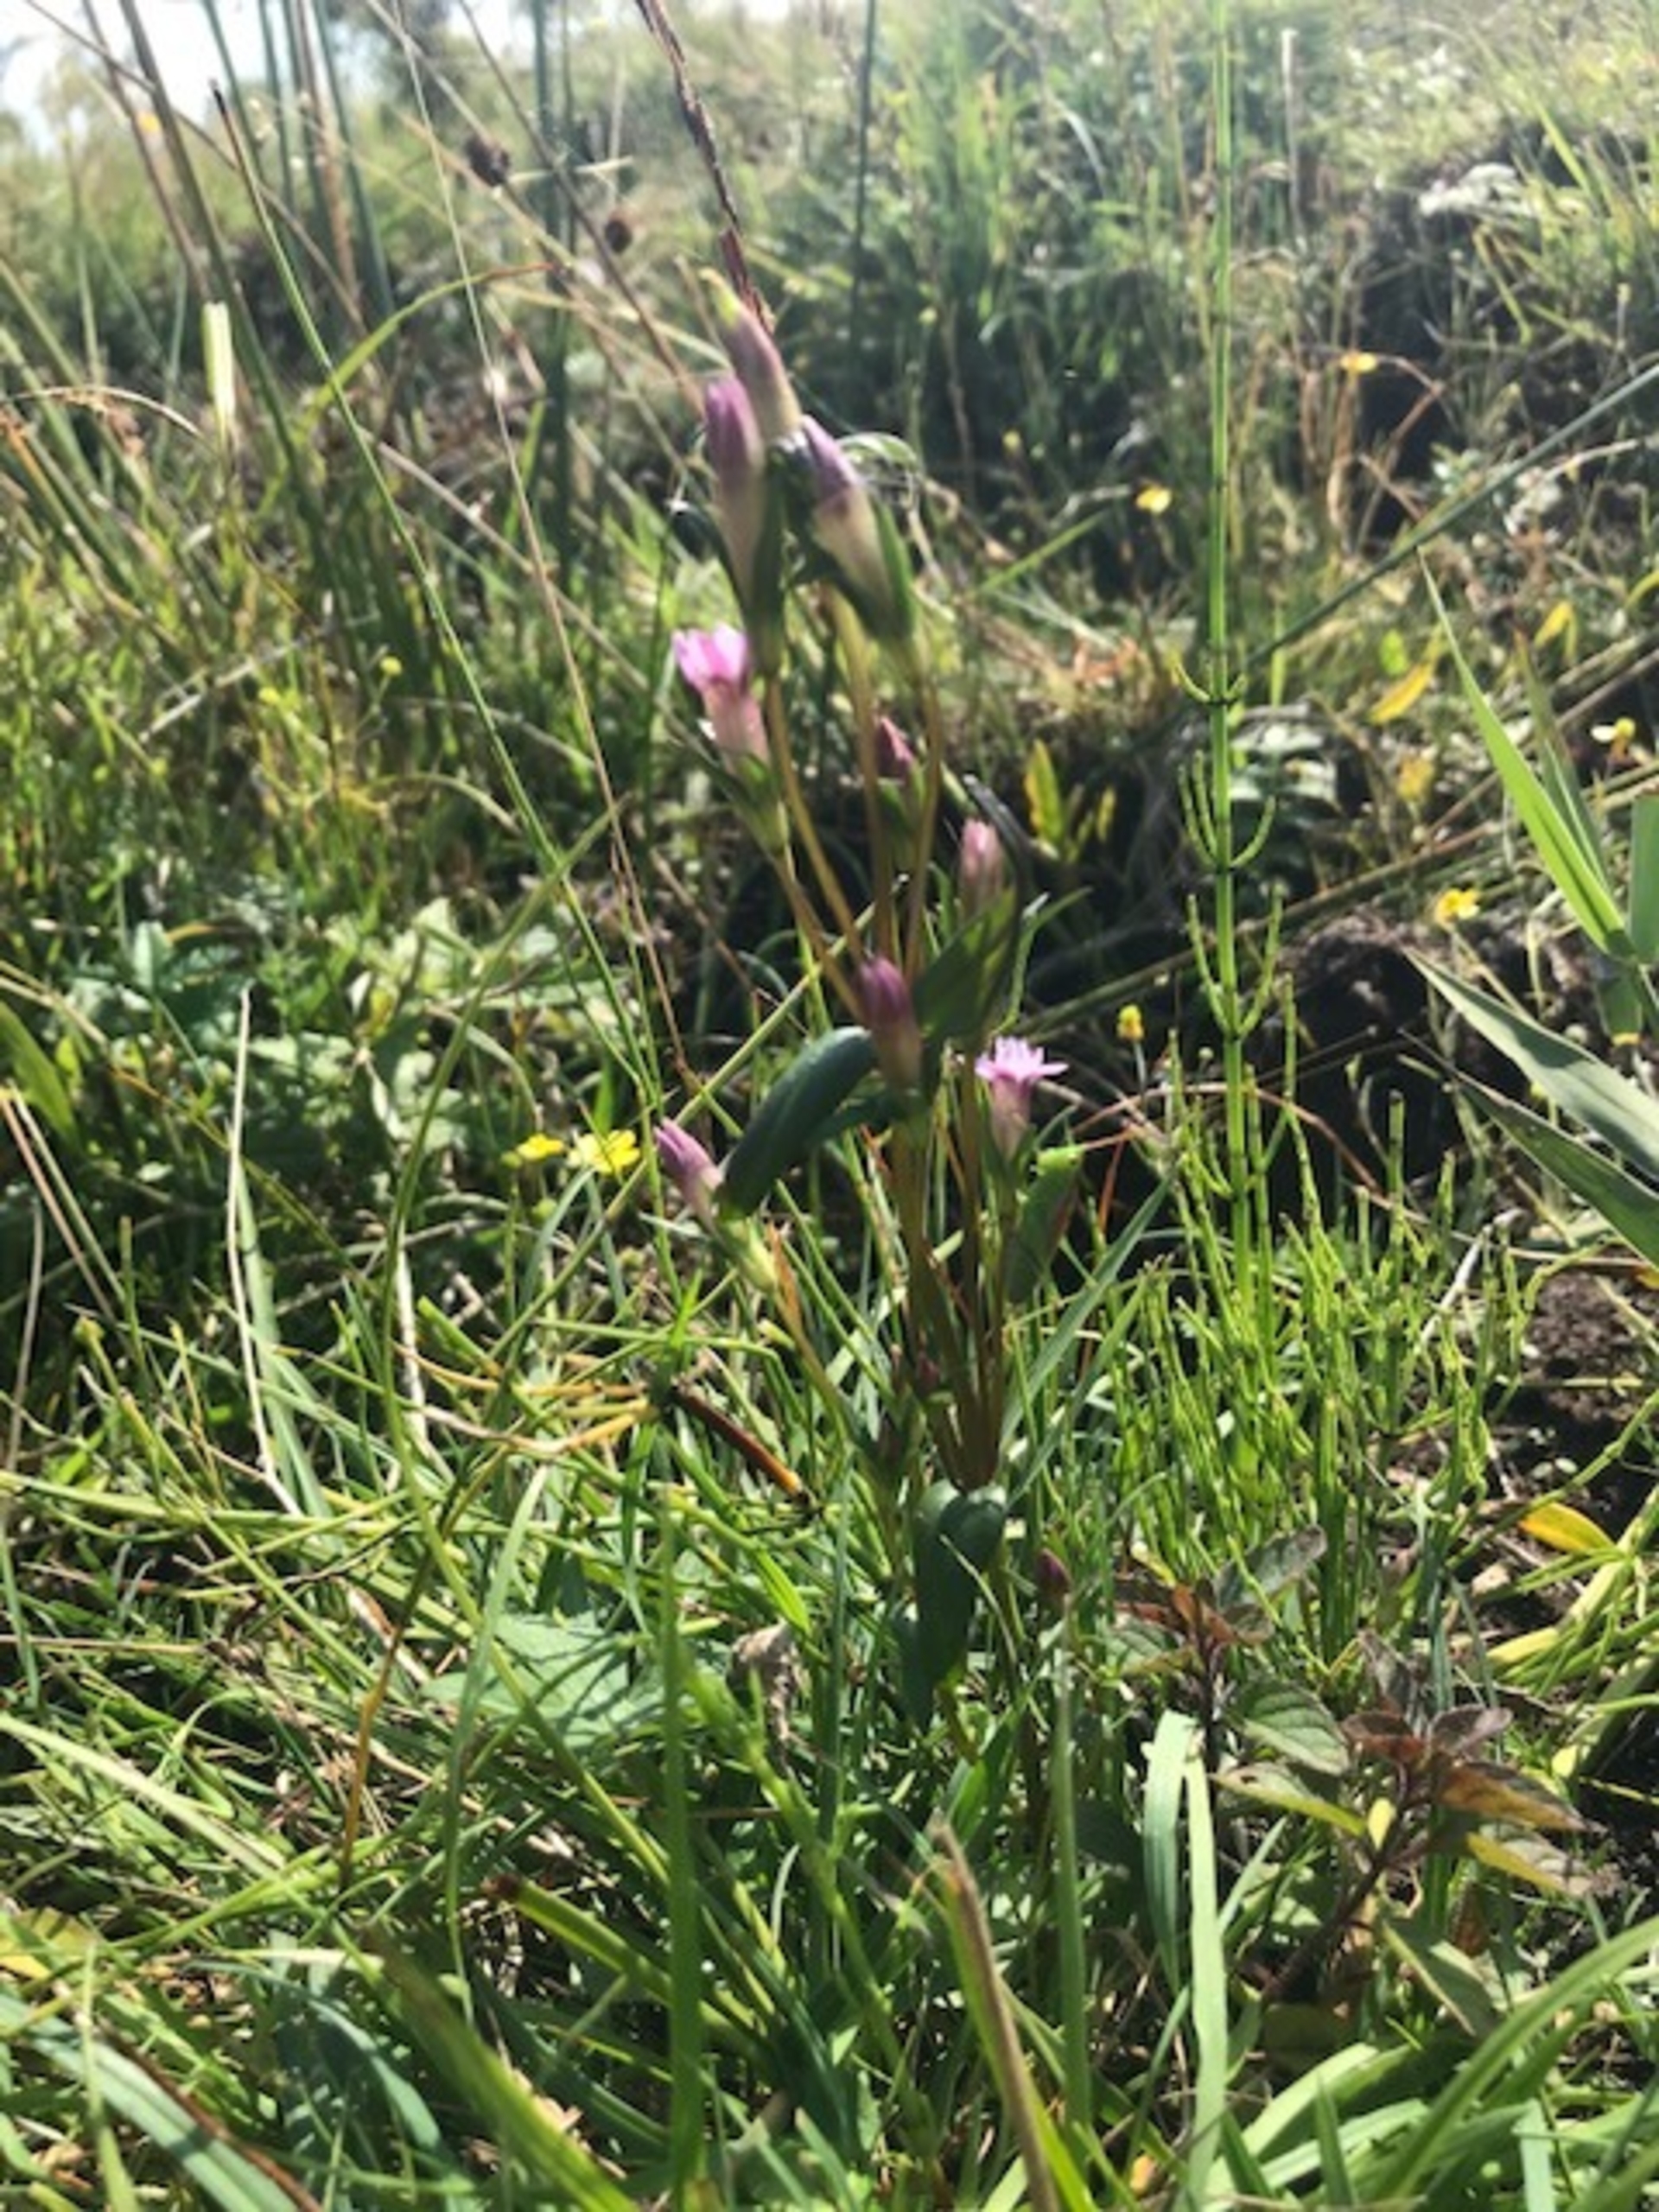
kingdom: Plantae
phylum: Tracheophyta
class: Magnoliopsida
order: Gentianales
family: Gentianaceae
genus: Gentianella
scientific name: Gentianella uliginosa
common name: Eng-ensian
